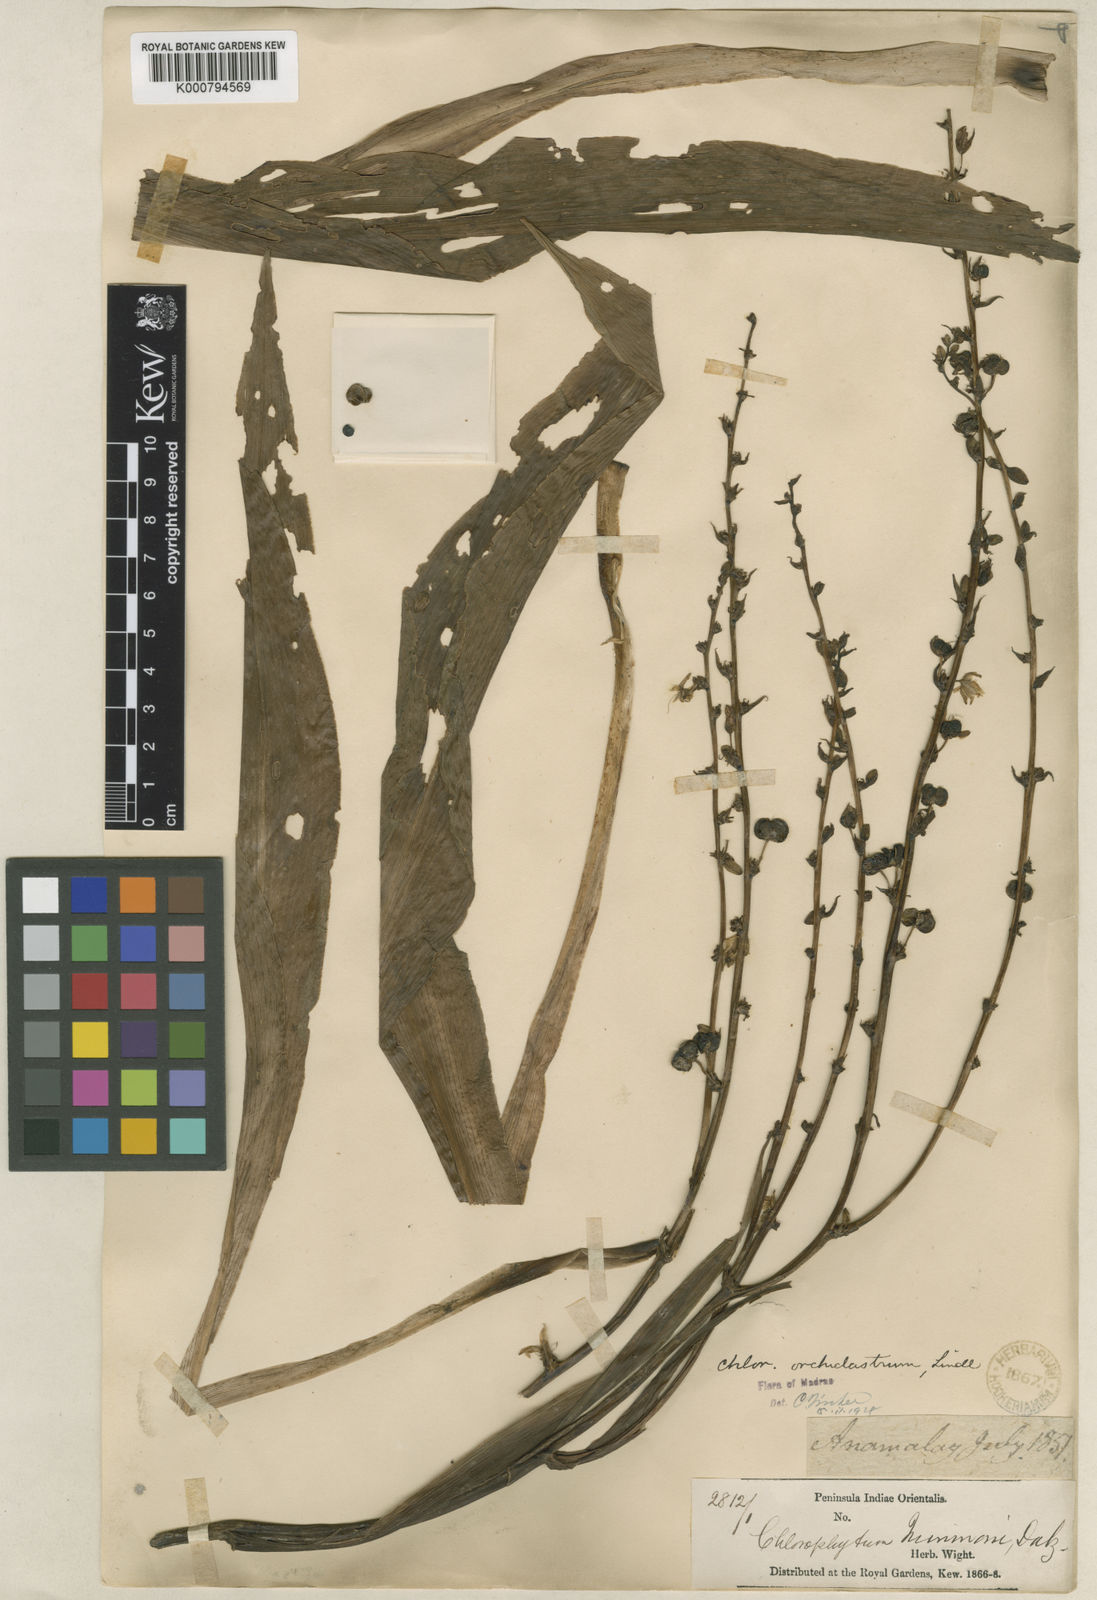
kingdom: Plantae
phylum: Tracheophyta
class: Liliopsida
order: Asparagales
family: Asparagaceae
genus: Chlorophytum
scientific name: Chlorophytum nimmonii
